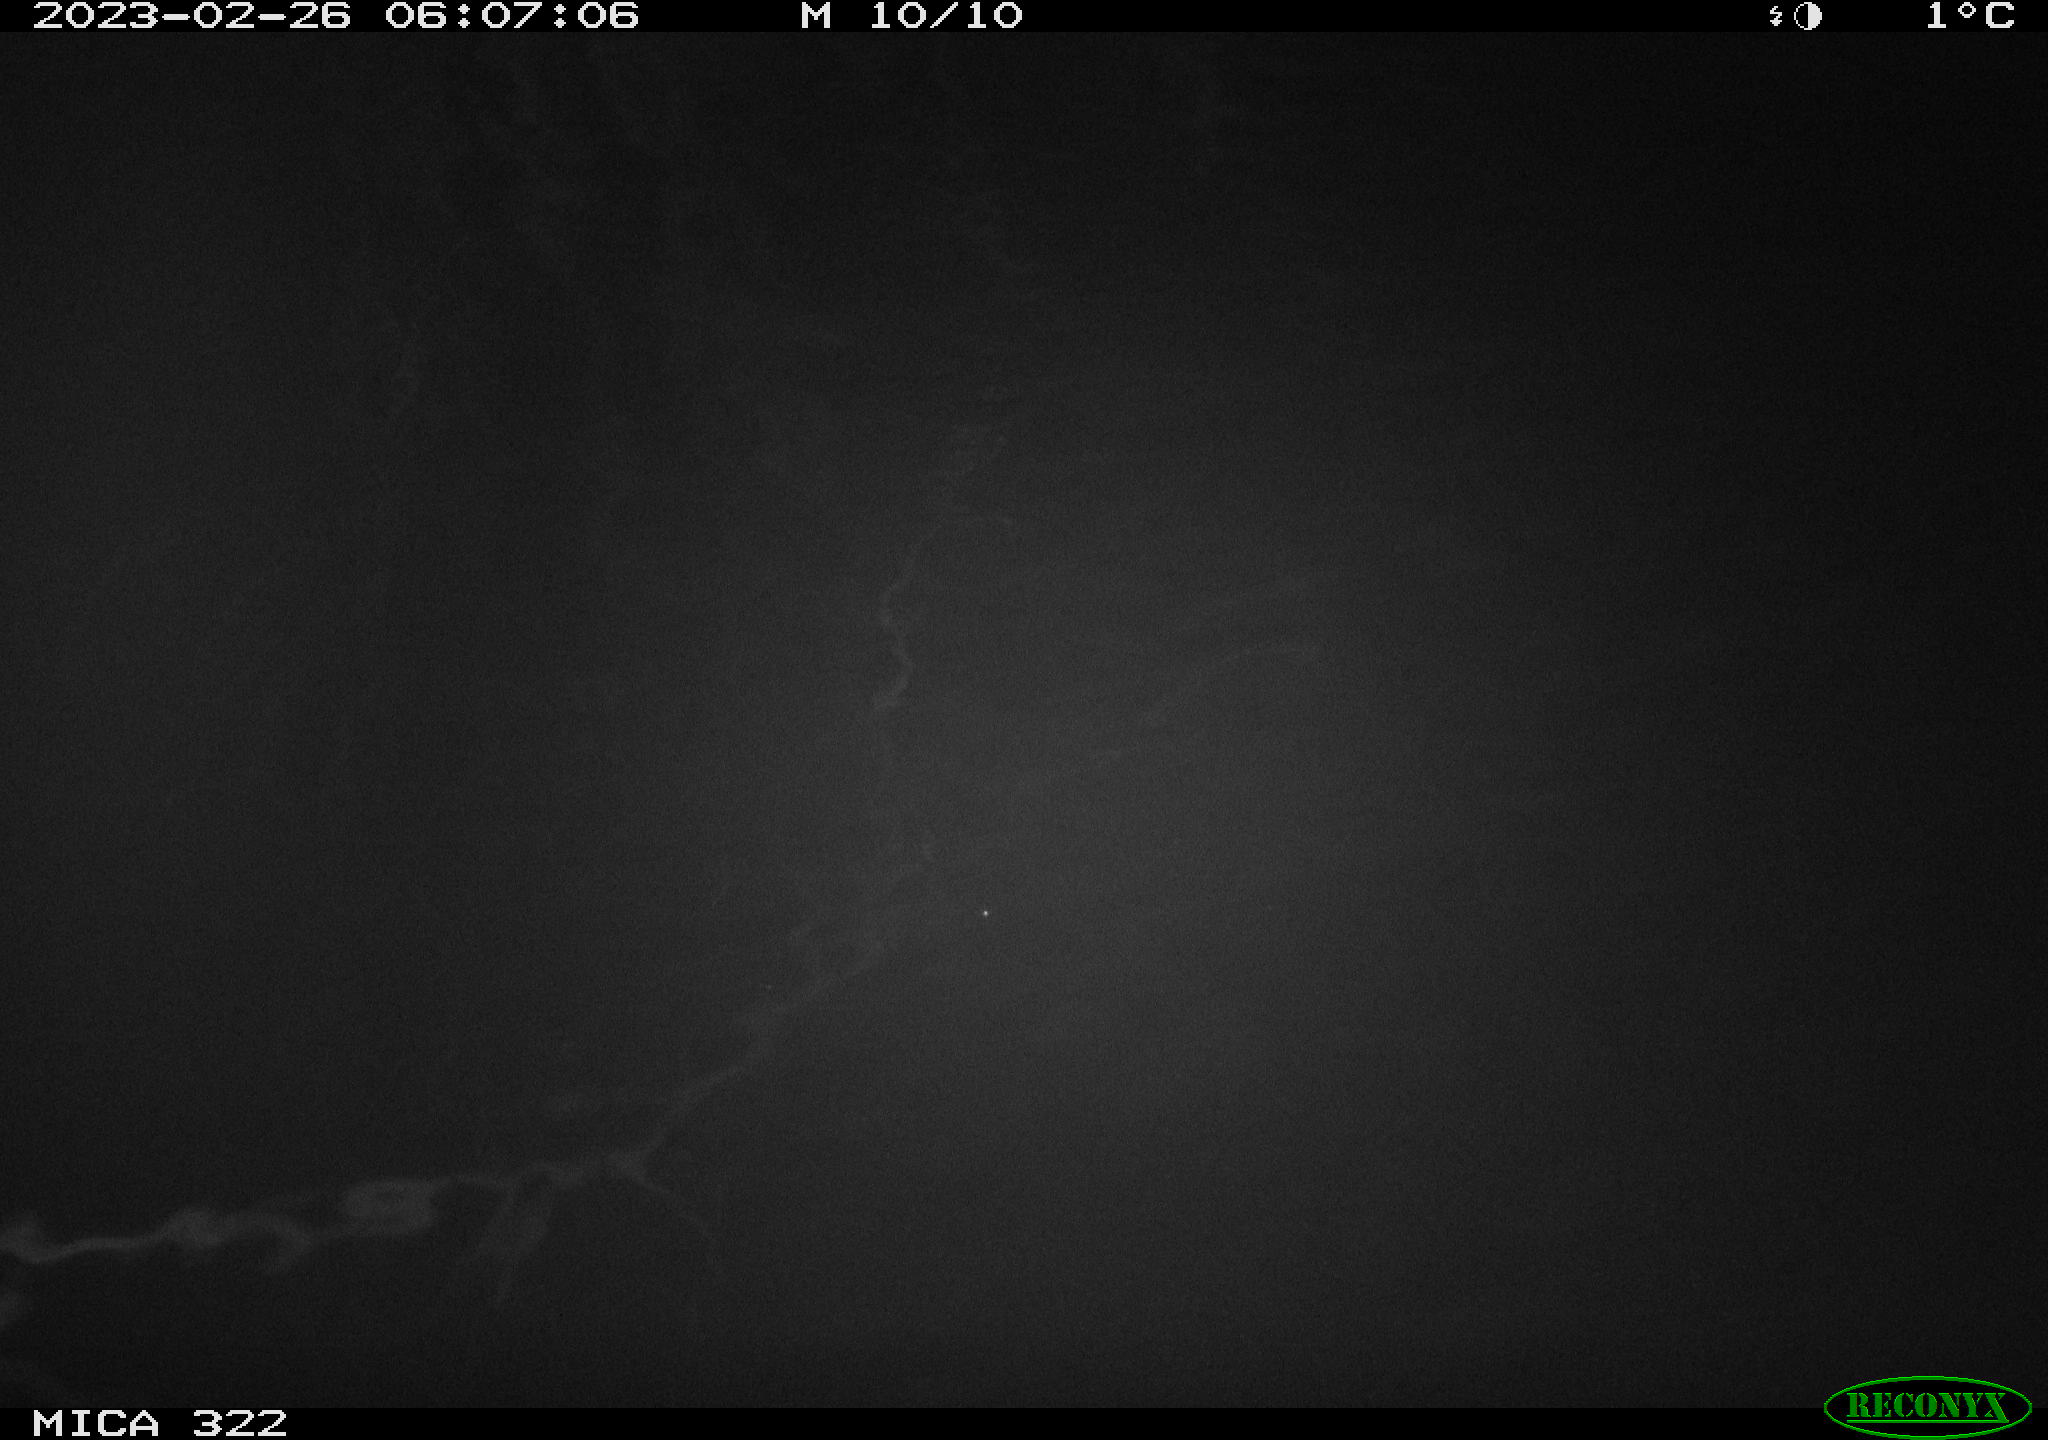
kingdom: Animalia
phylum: Chordata
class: Aves
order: Anseriformes
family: Anatidae
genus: Anas
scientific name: Anas
